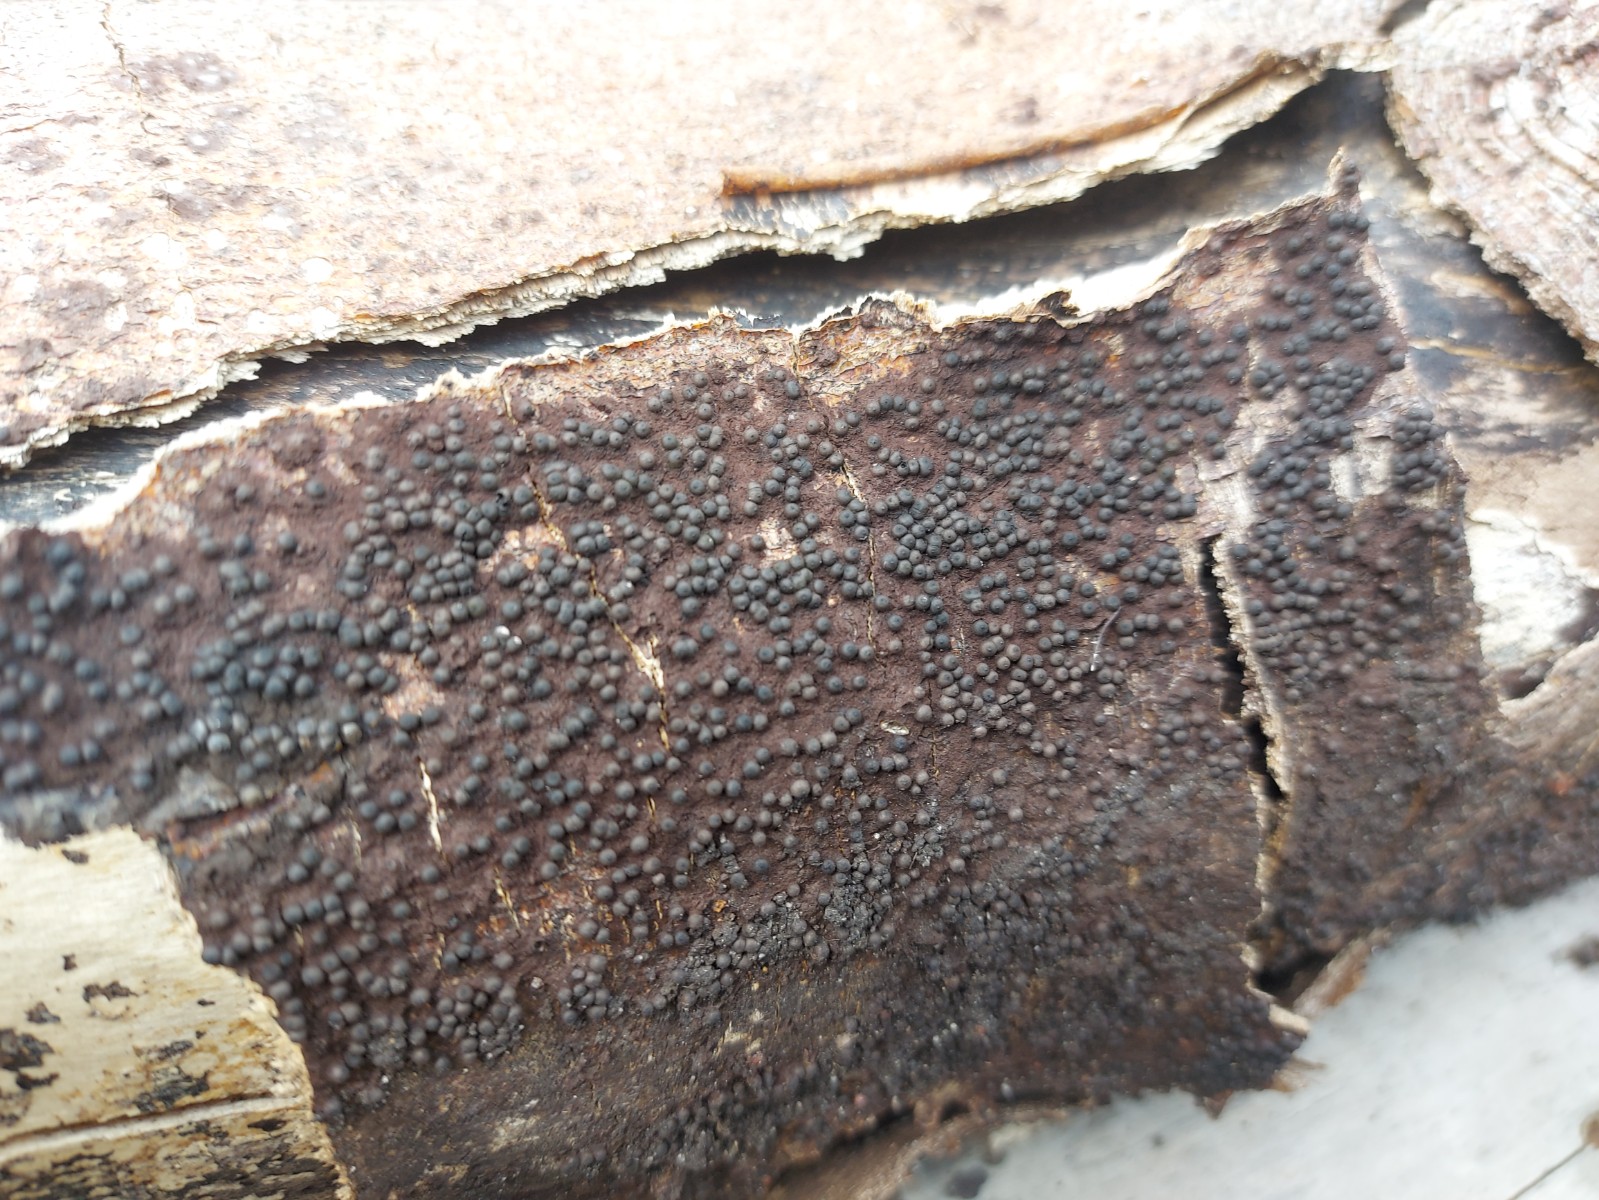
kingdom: Fungi
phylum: Ascomycota
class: Sordariomycetes
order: Xylariales
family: Xylariaceae
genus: Rosellinia
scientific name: Rosellinia
